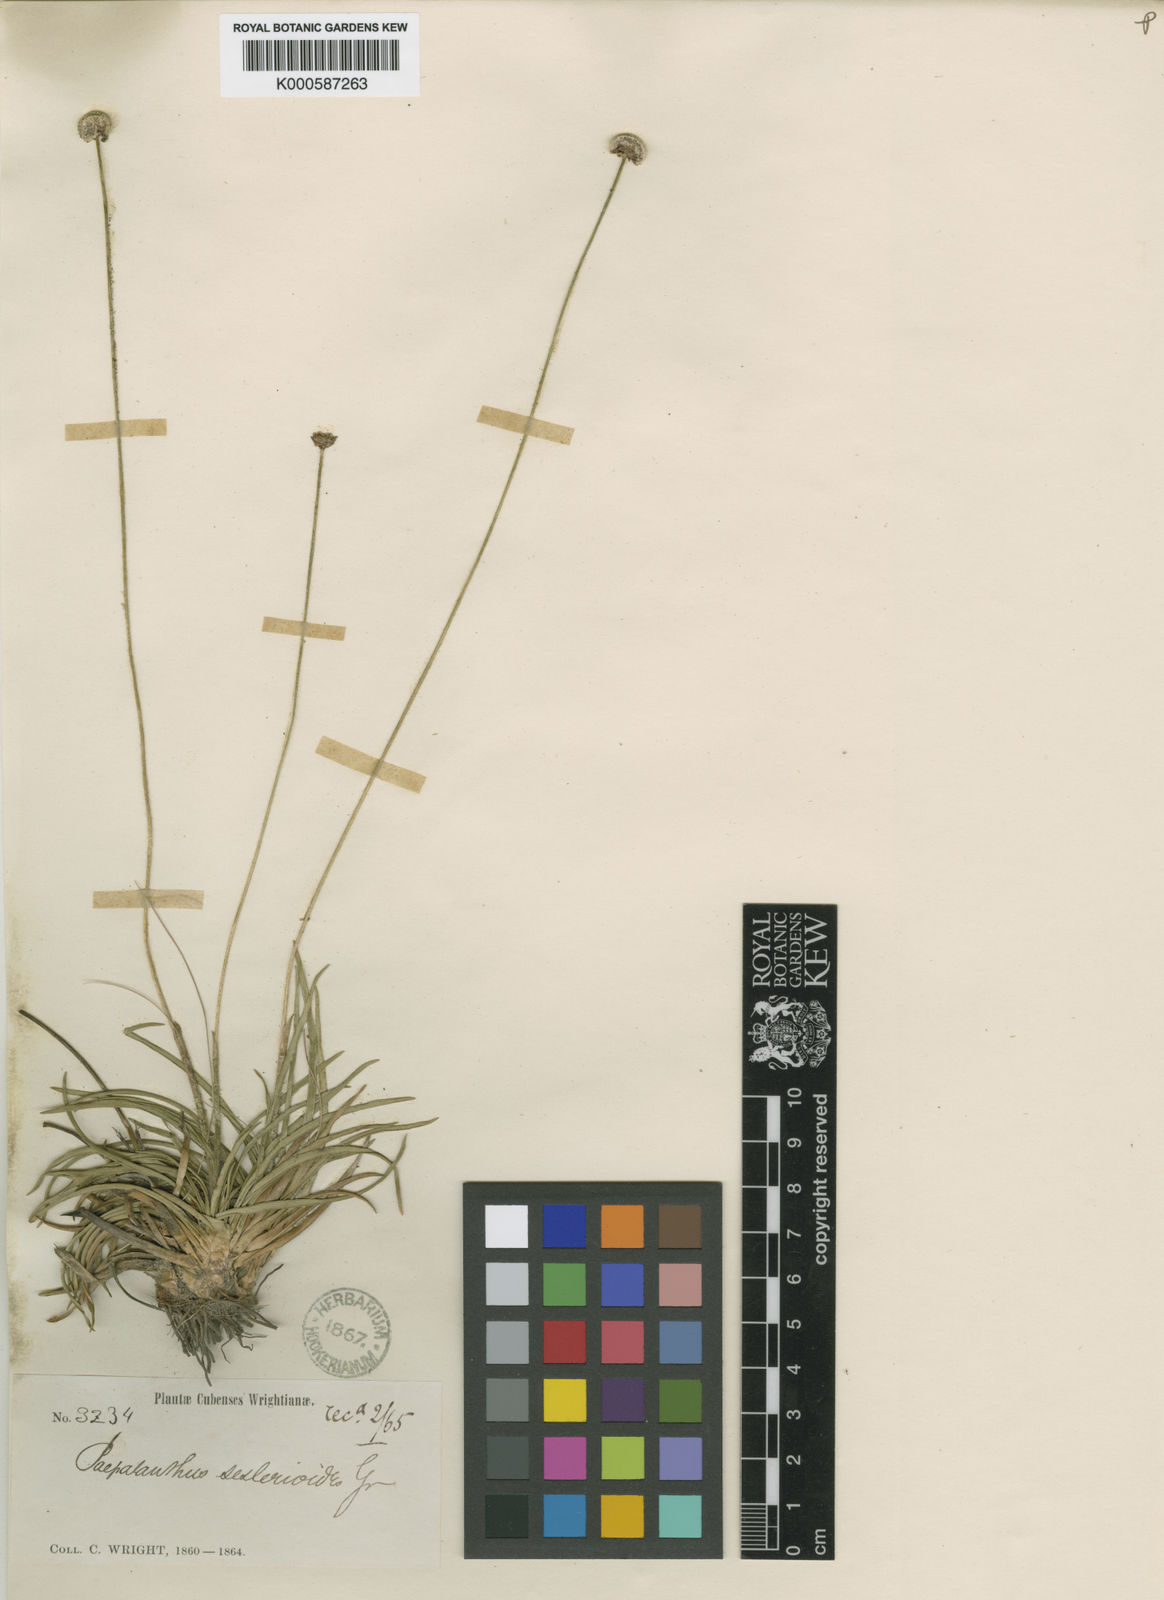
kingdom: Plantae
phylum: Tracheophyta
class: Liliopsida
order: Poales
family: Eriocaulaceae
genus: Paepalanthus
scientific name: Paepalanthus seslerioides
